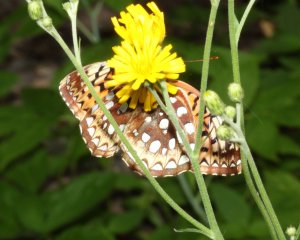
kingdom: Animalia
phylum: Arthropoda
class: Insecta
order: Lepidoptera
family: Nymphalidae
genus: Speyeria
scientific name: Speyeria atlantis
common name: Atlantis Fritillary
